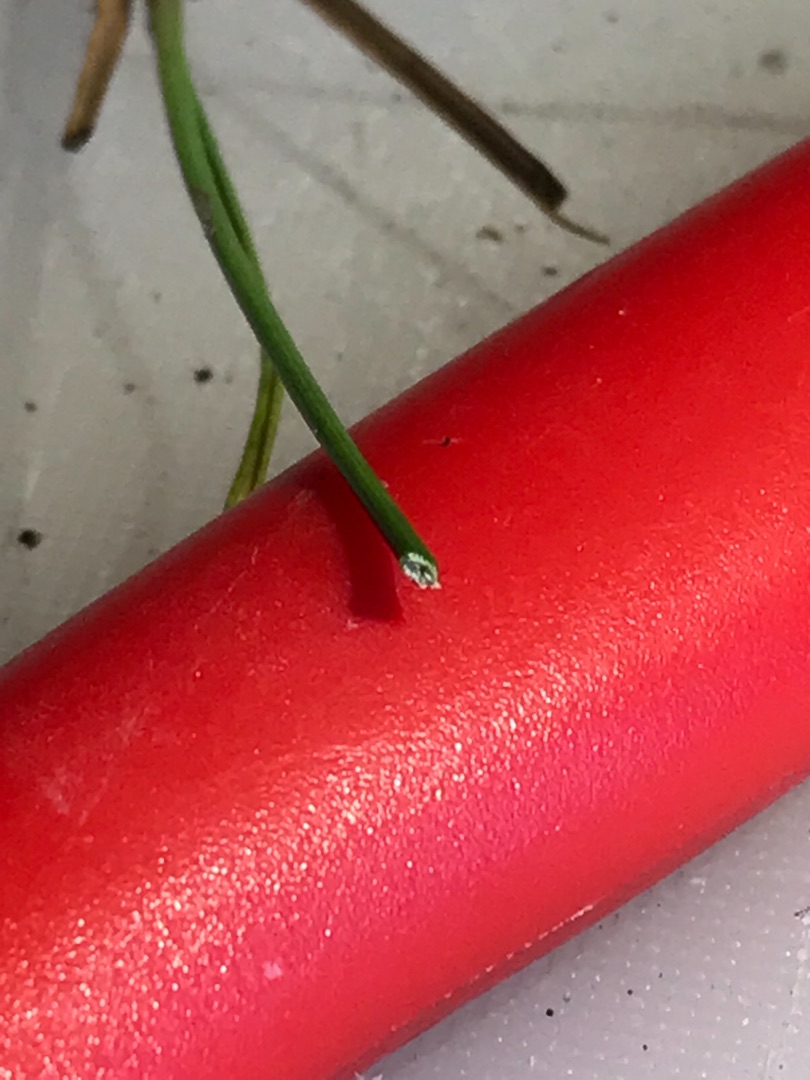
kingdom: Plantae
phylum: Tracheophyta
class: Liliopsida
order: Poales
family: Juncaceae
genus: Juncus
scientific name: Juncus gerardi
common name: Harril
